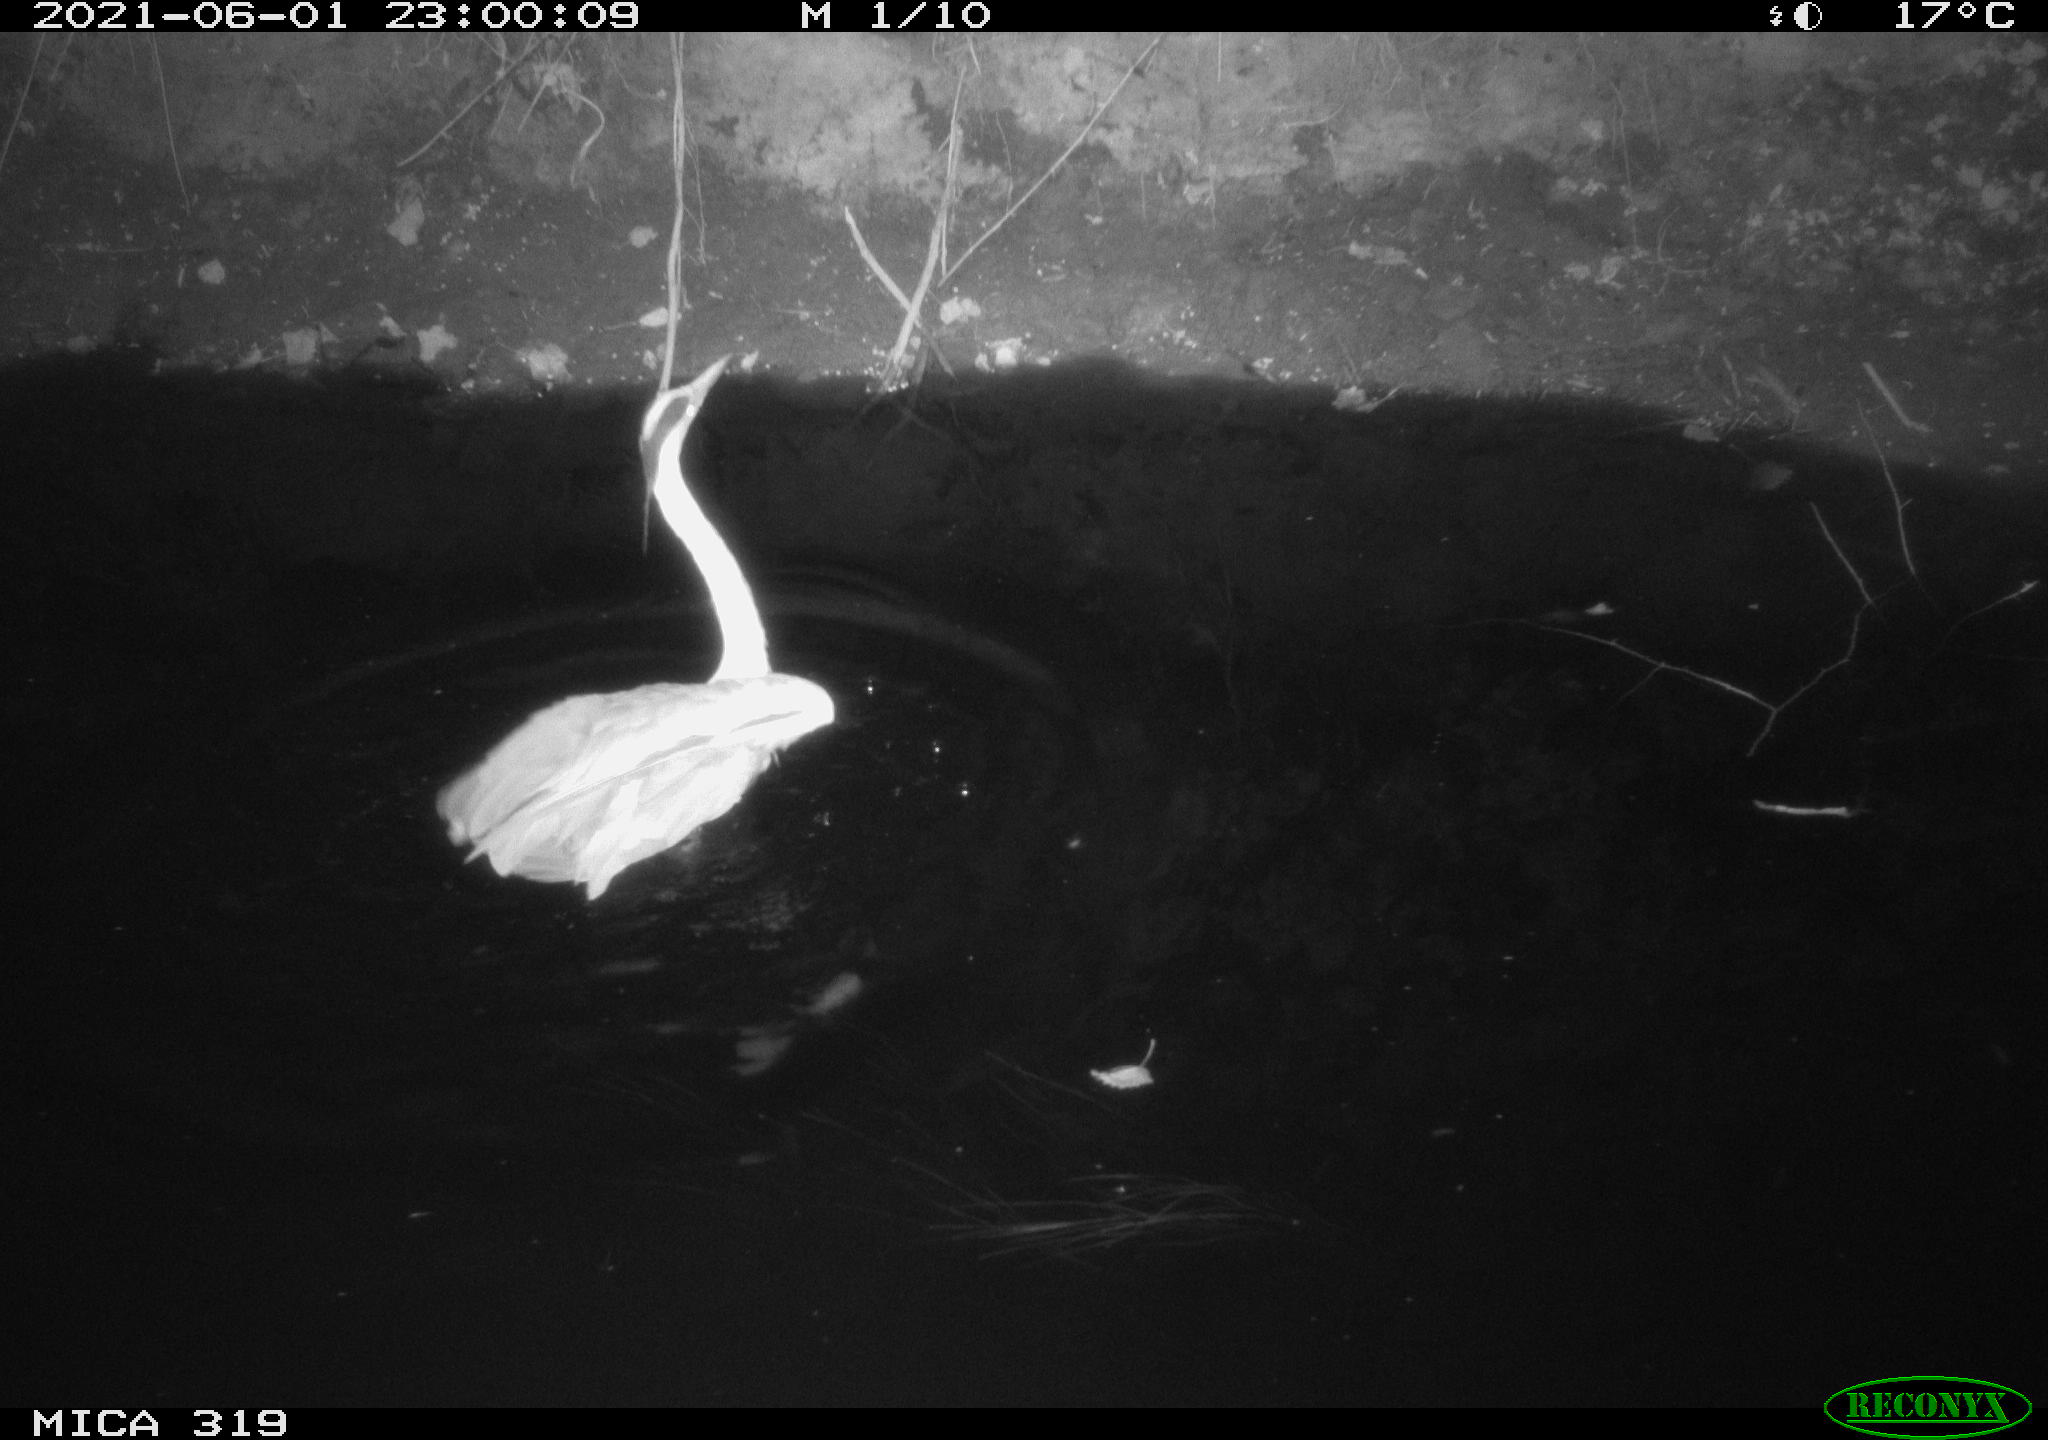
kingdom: Animalia
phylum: Chordata
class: Aves
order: Pelecaniformes
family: Ardeidae
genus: Ardea
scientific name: Ardea
